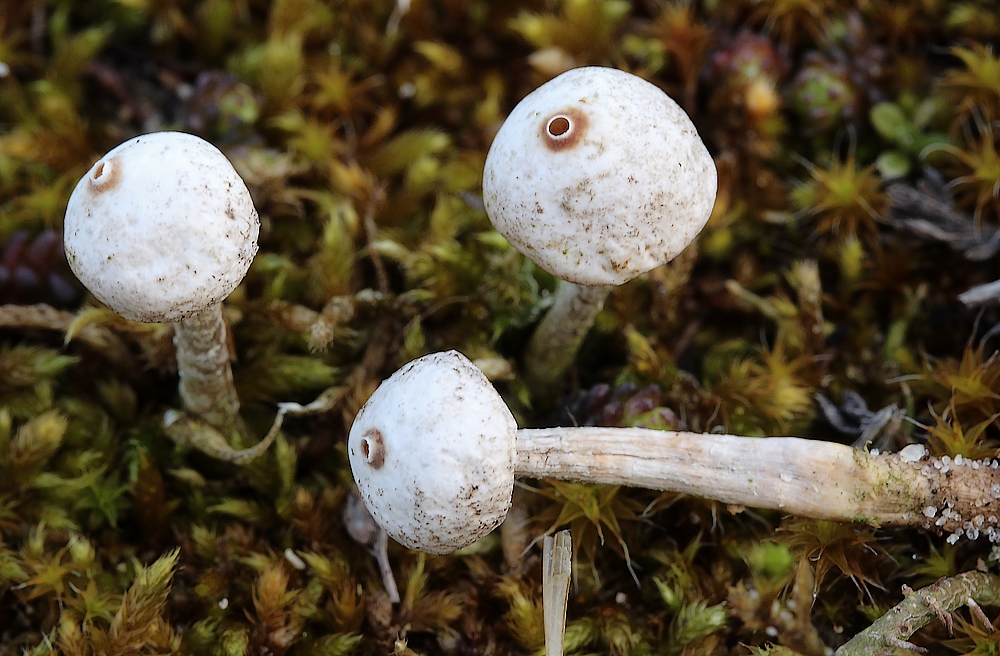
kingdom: Fungi
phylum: Basidiomycota
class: Agaricomycetes
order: Agaricales
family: Agaricaceae
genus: Tulostoma
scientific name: Tulostoma brumale
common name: vinter-stilkbovist
